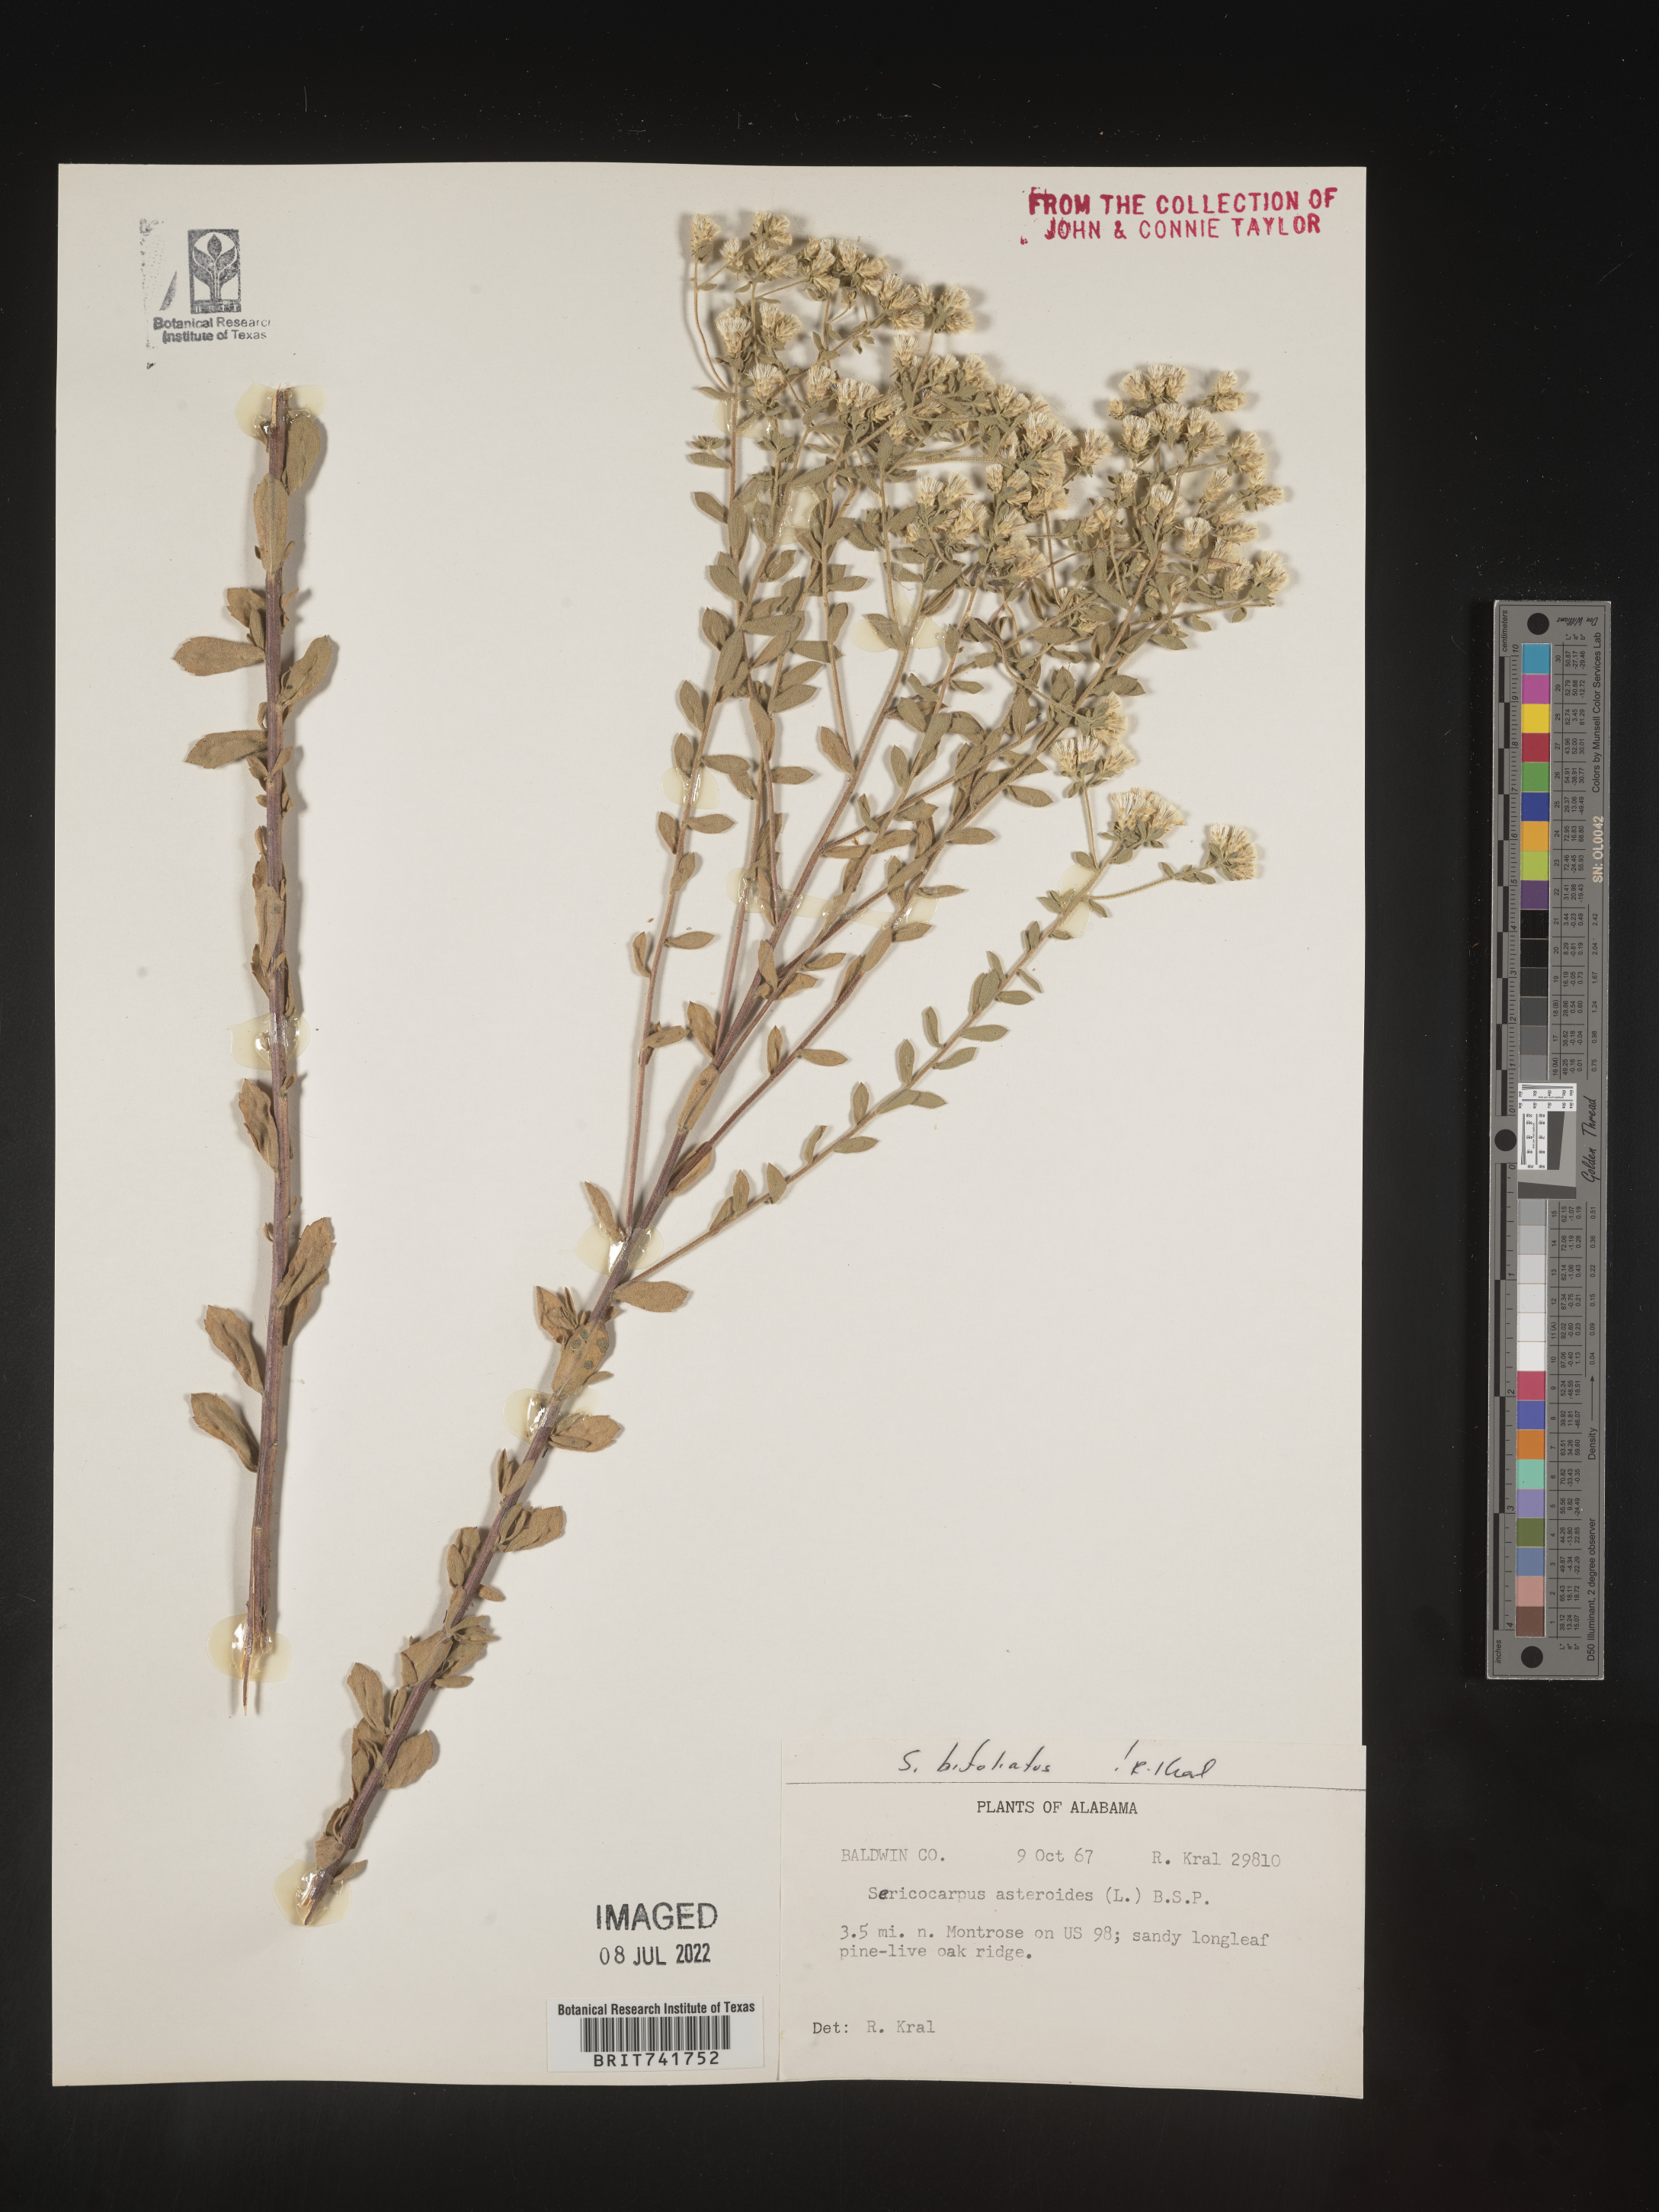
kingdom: Plantae
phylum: Tracheophyta
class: Magnoliopsida
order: Asterales
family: Asteraceae
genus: Sericocarpus
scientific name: Sericocarpus tortifolius
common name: Dixie aster
